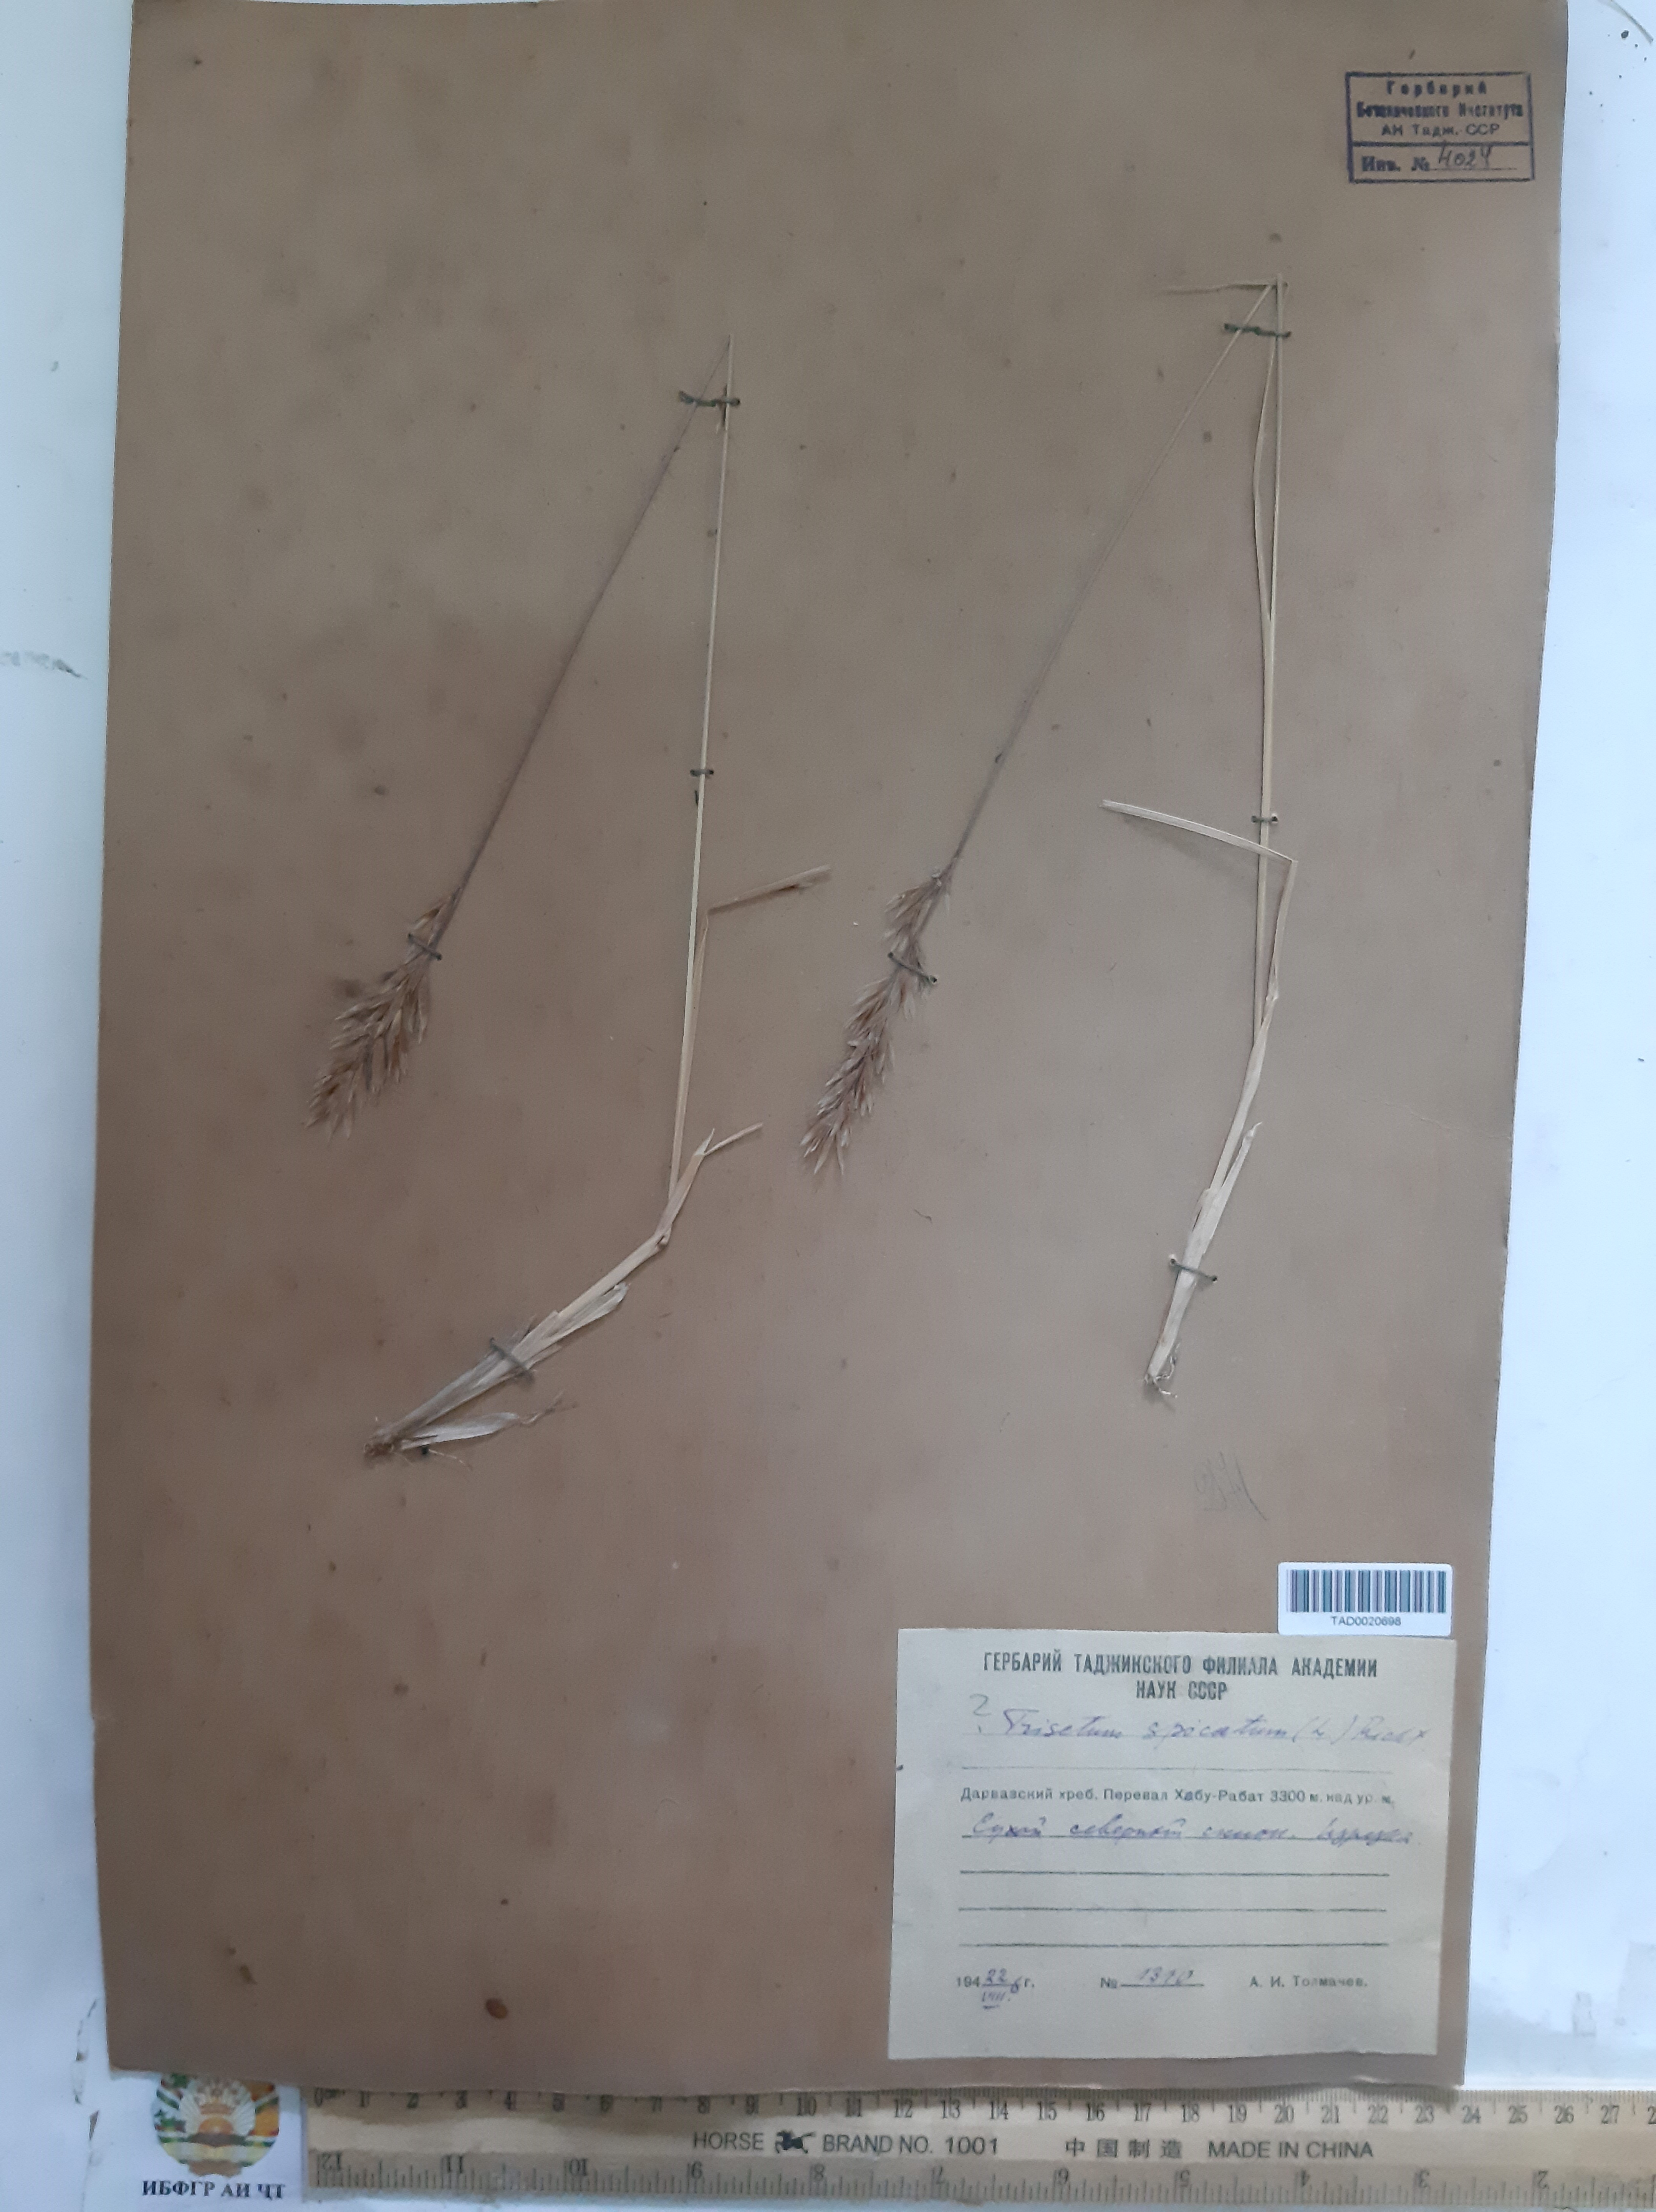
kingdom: Plantae
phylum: Tracheophyta
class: Liliopsida
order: Poales
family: Poaceae
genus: Koeleria
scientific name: Koeleria spicata
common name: Mountain trisetum
